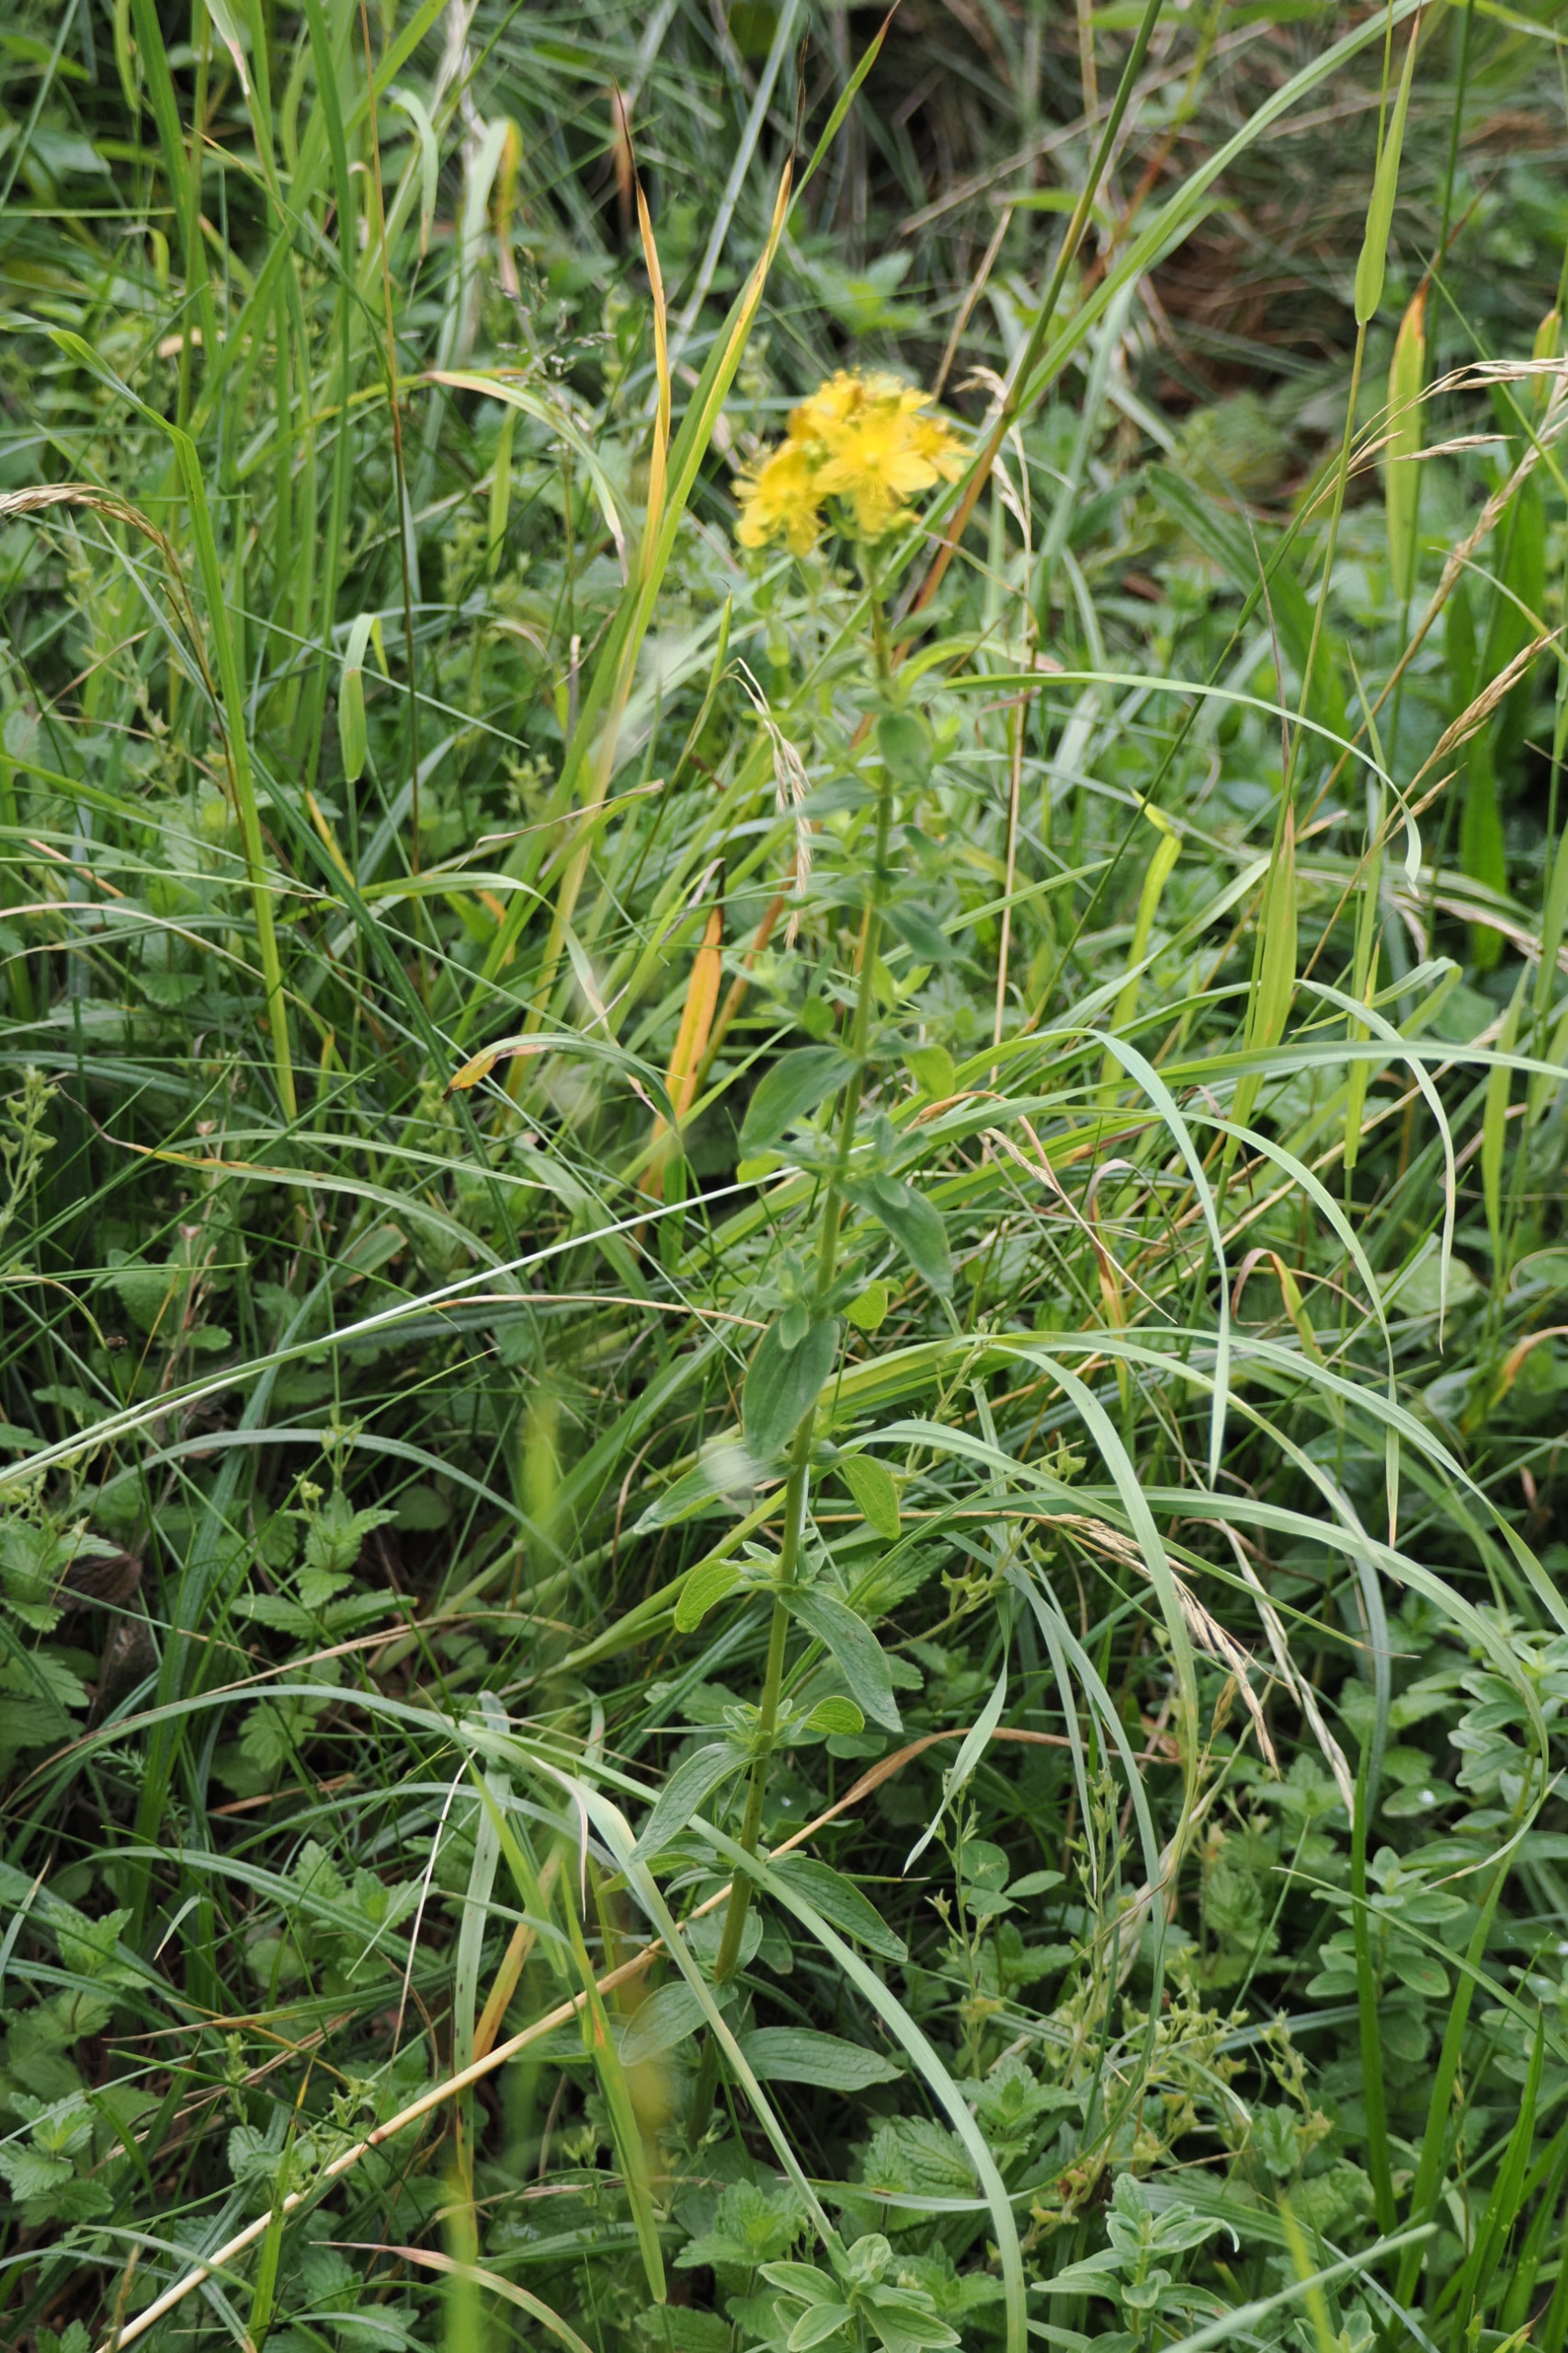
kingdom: Plantae
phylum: Tracheophyta
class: Magnoliopsida
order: Malpighiales
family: Hypericaceae
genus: Hypericum
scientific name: Hypericum maculatum
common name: Kantet perikon
